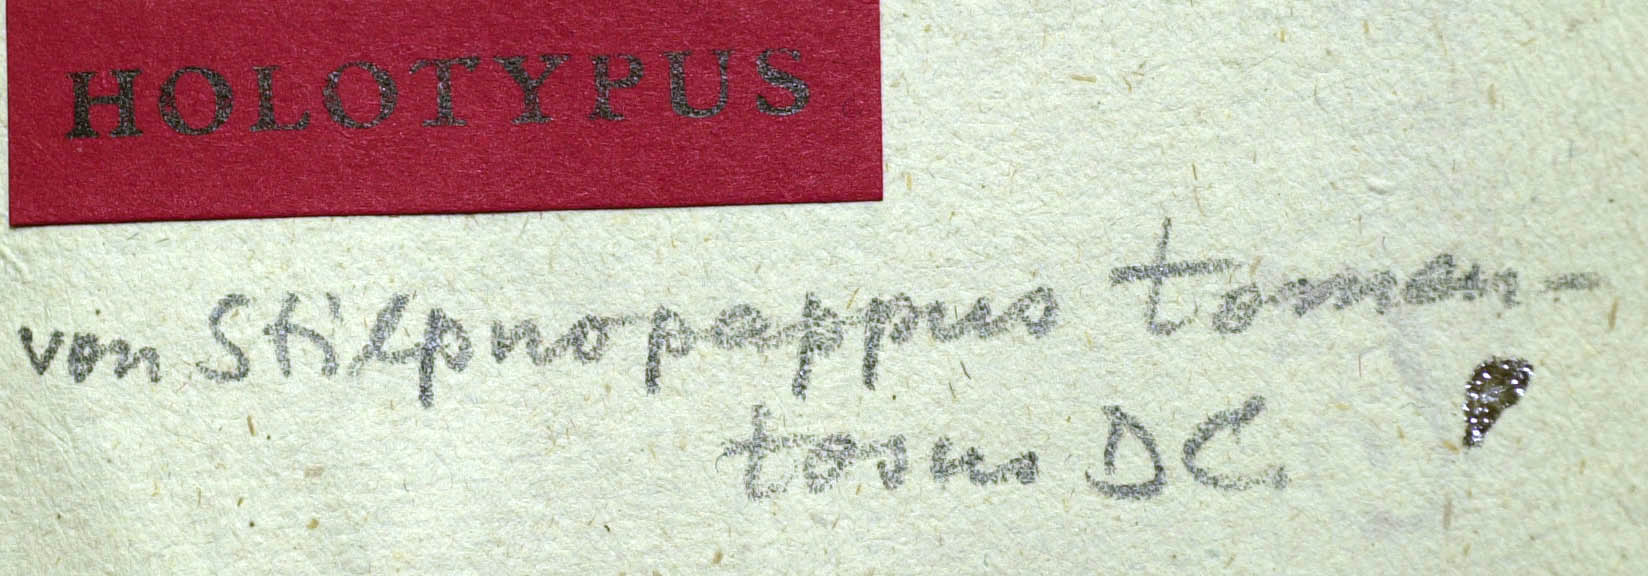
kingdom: Plantae
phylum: Tracheophyta
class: Magnoliopsida
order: Asterales
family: Asteraceae
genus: Stilpnopappus
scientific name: Stilpnopappus tomentosus
